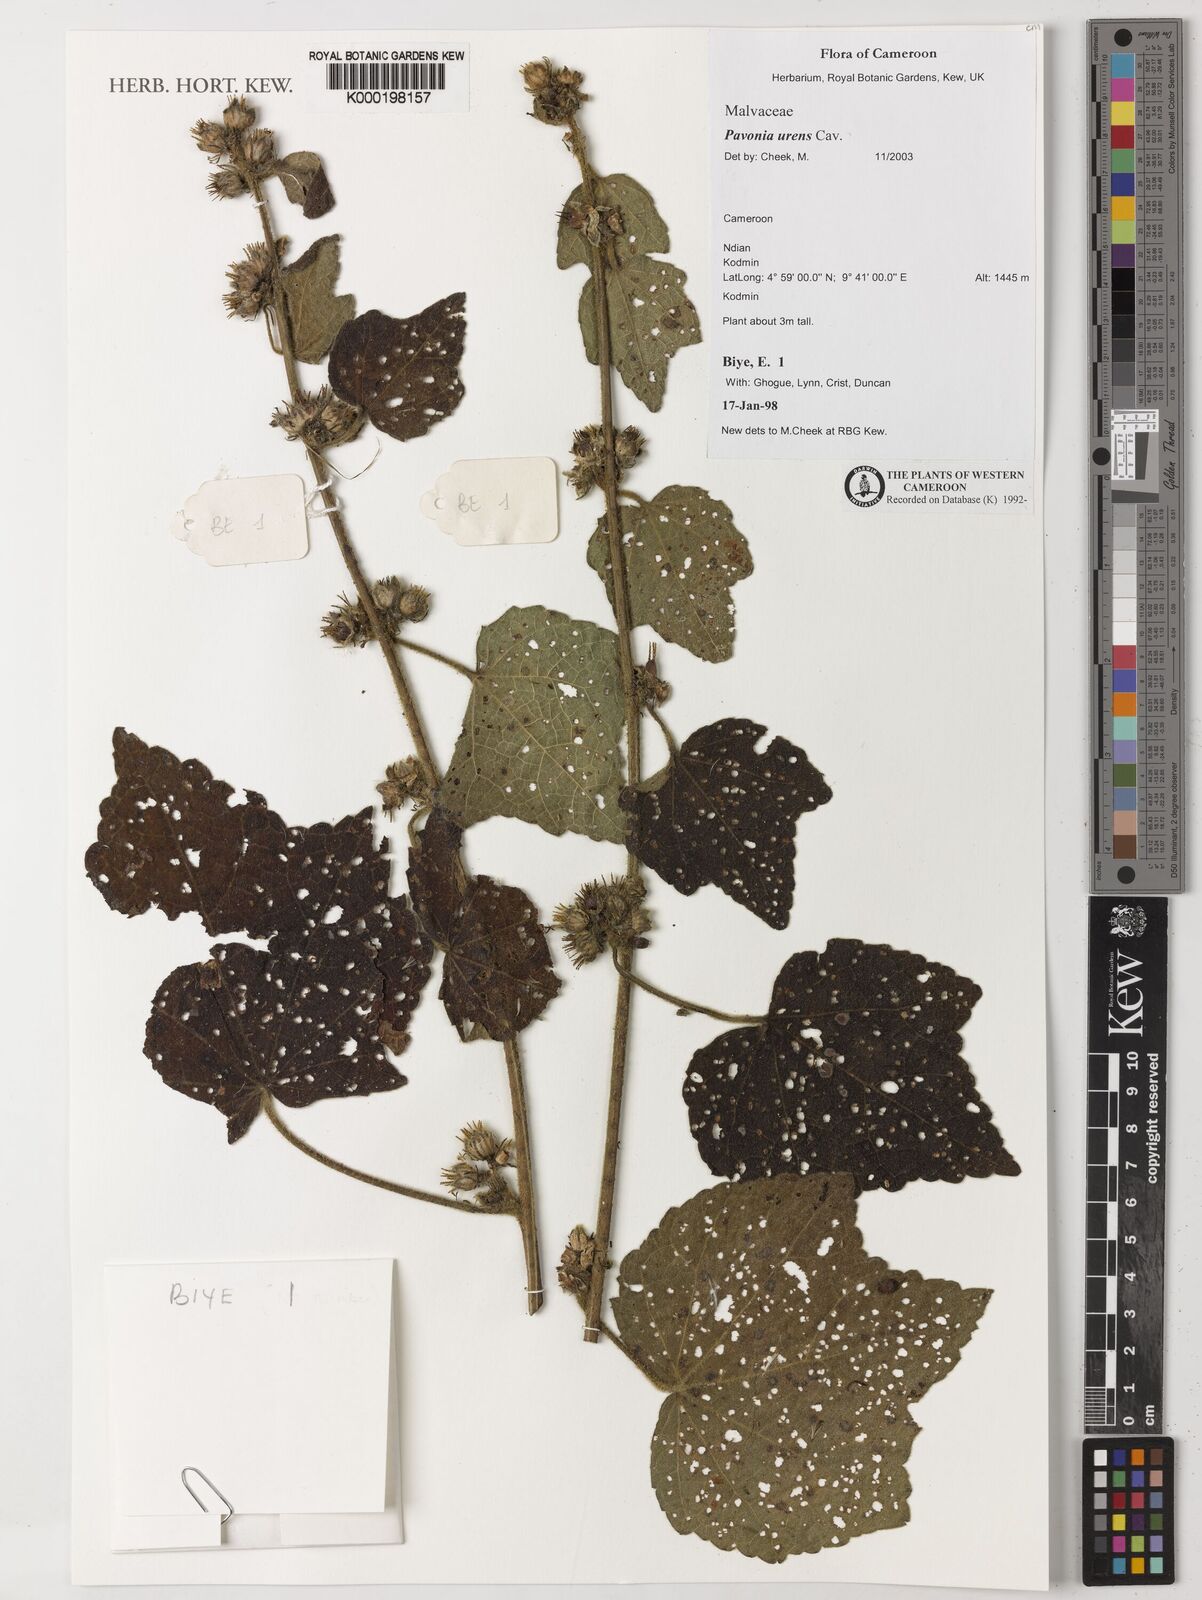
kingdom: Plantae
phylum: Tracheophyta
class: Magnoliopsida
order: Malvales
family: Malvaceae
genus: Pavonia
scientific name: Pavonia urens
